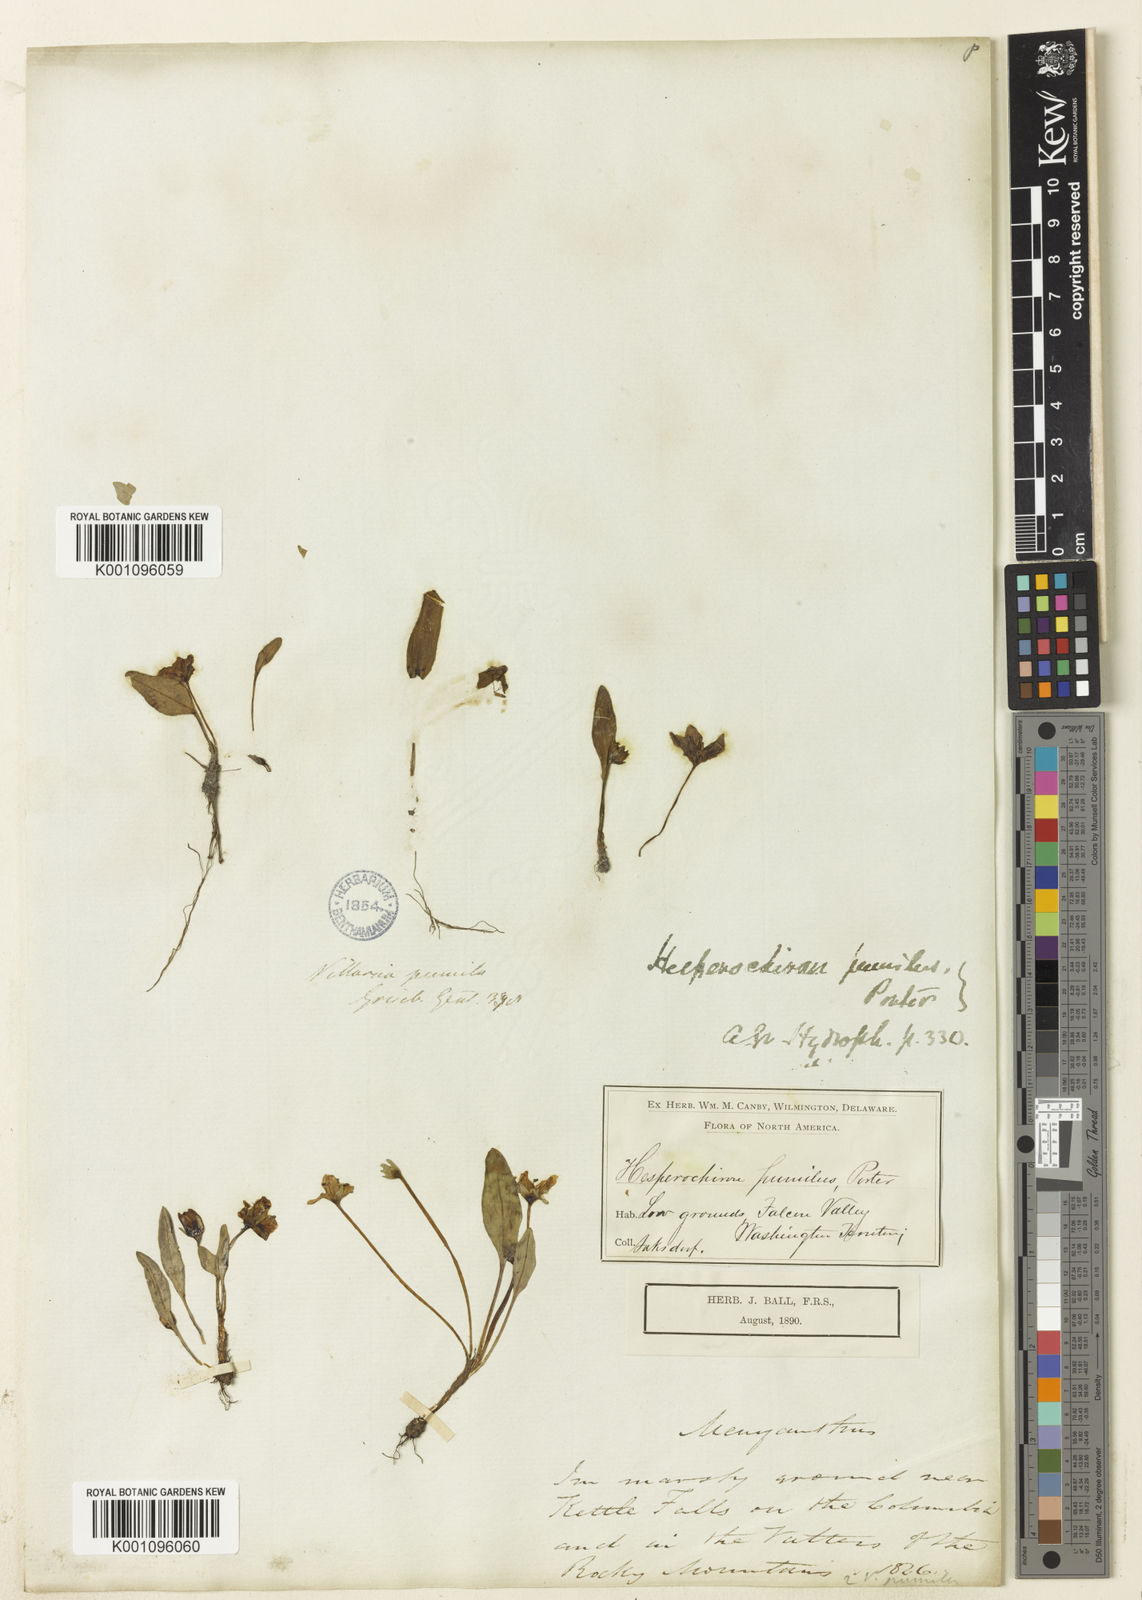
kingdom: Plantae
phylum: Tracheophyta
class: Magnoliopsida
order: Boraginales
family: Hydrophyllaceae
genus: Hesperochiron
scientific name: Hesperochiron pumilus
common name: Dwarf hesperochiron
